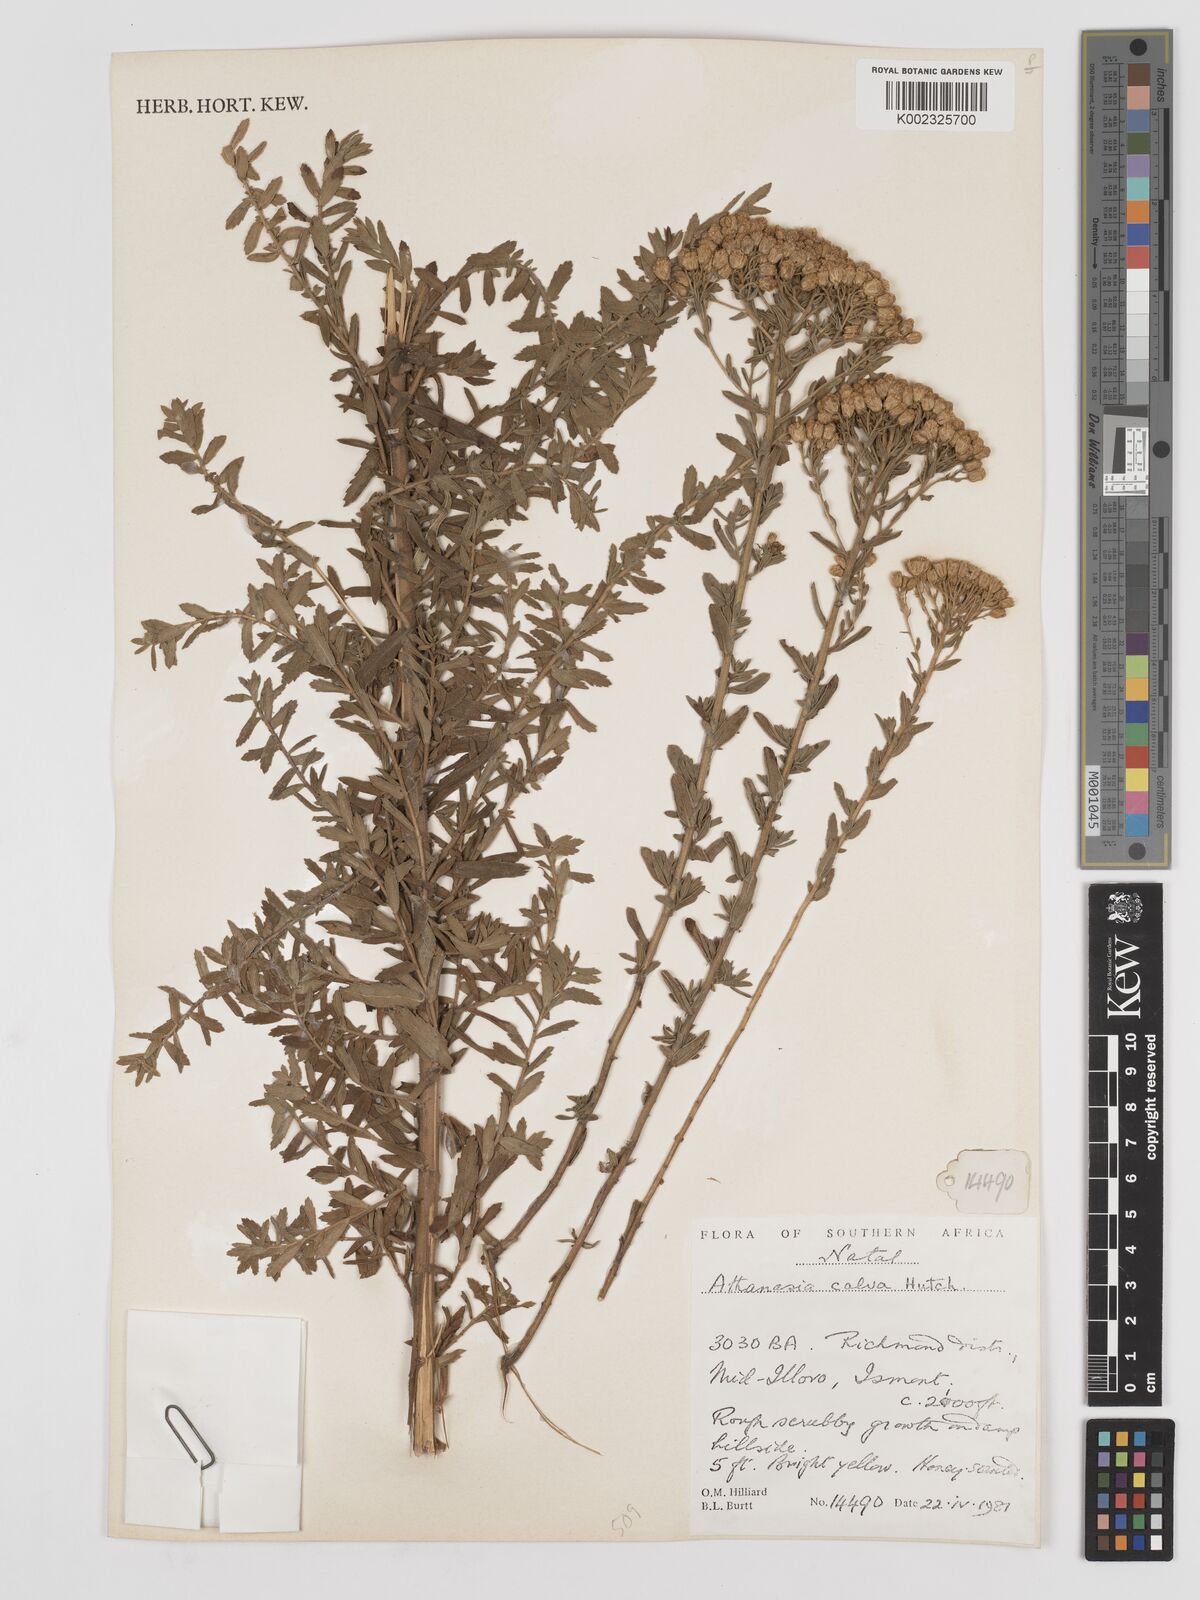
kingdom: Plantae
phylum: Tracheophyta
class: Magnoliopsida
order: Asterales
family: Asteraceae
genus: Inulanthera
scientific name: Inulanthera dregeana
